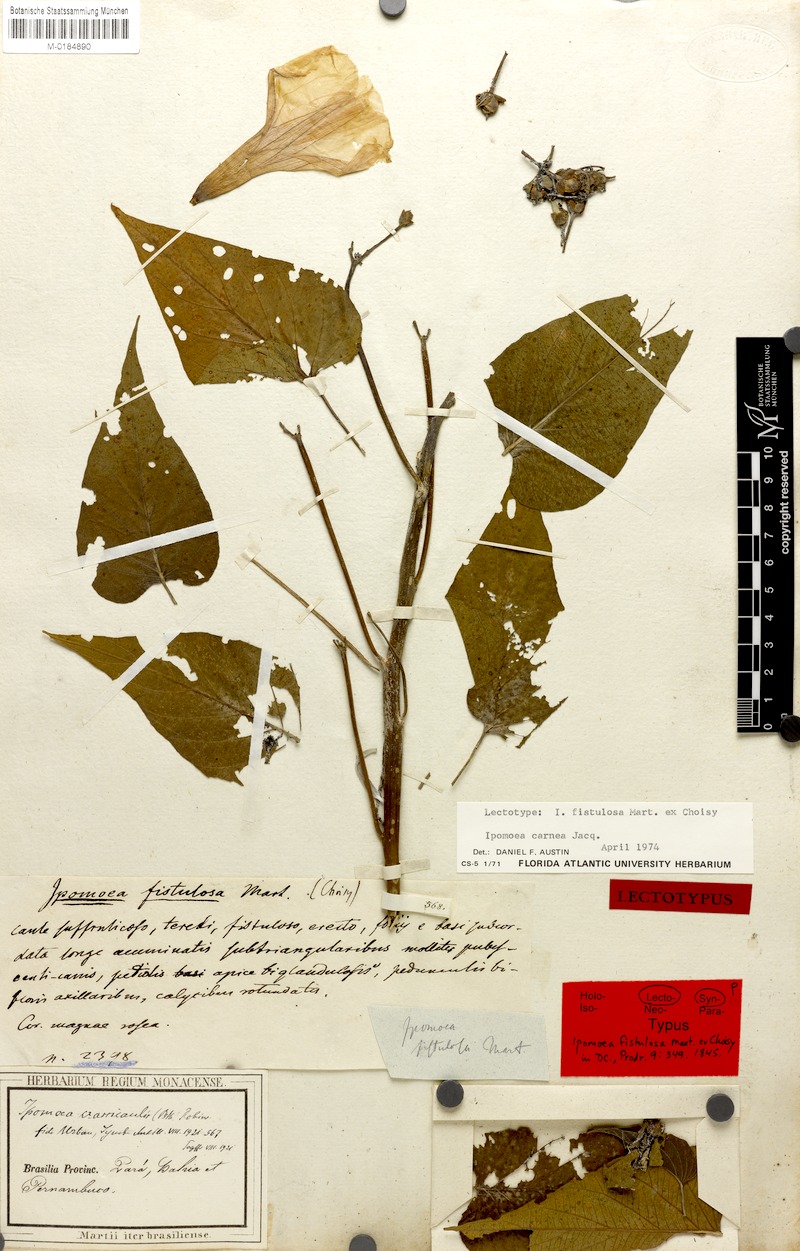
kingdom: Plantae
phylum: Tracheophyta
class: Magnoliopsida
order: Solanales
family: Convolvulaceae
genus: Ipomoea
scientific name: Ipomoea carnea
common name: Morning-glory
